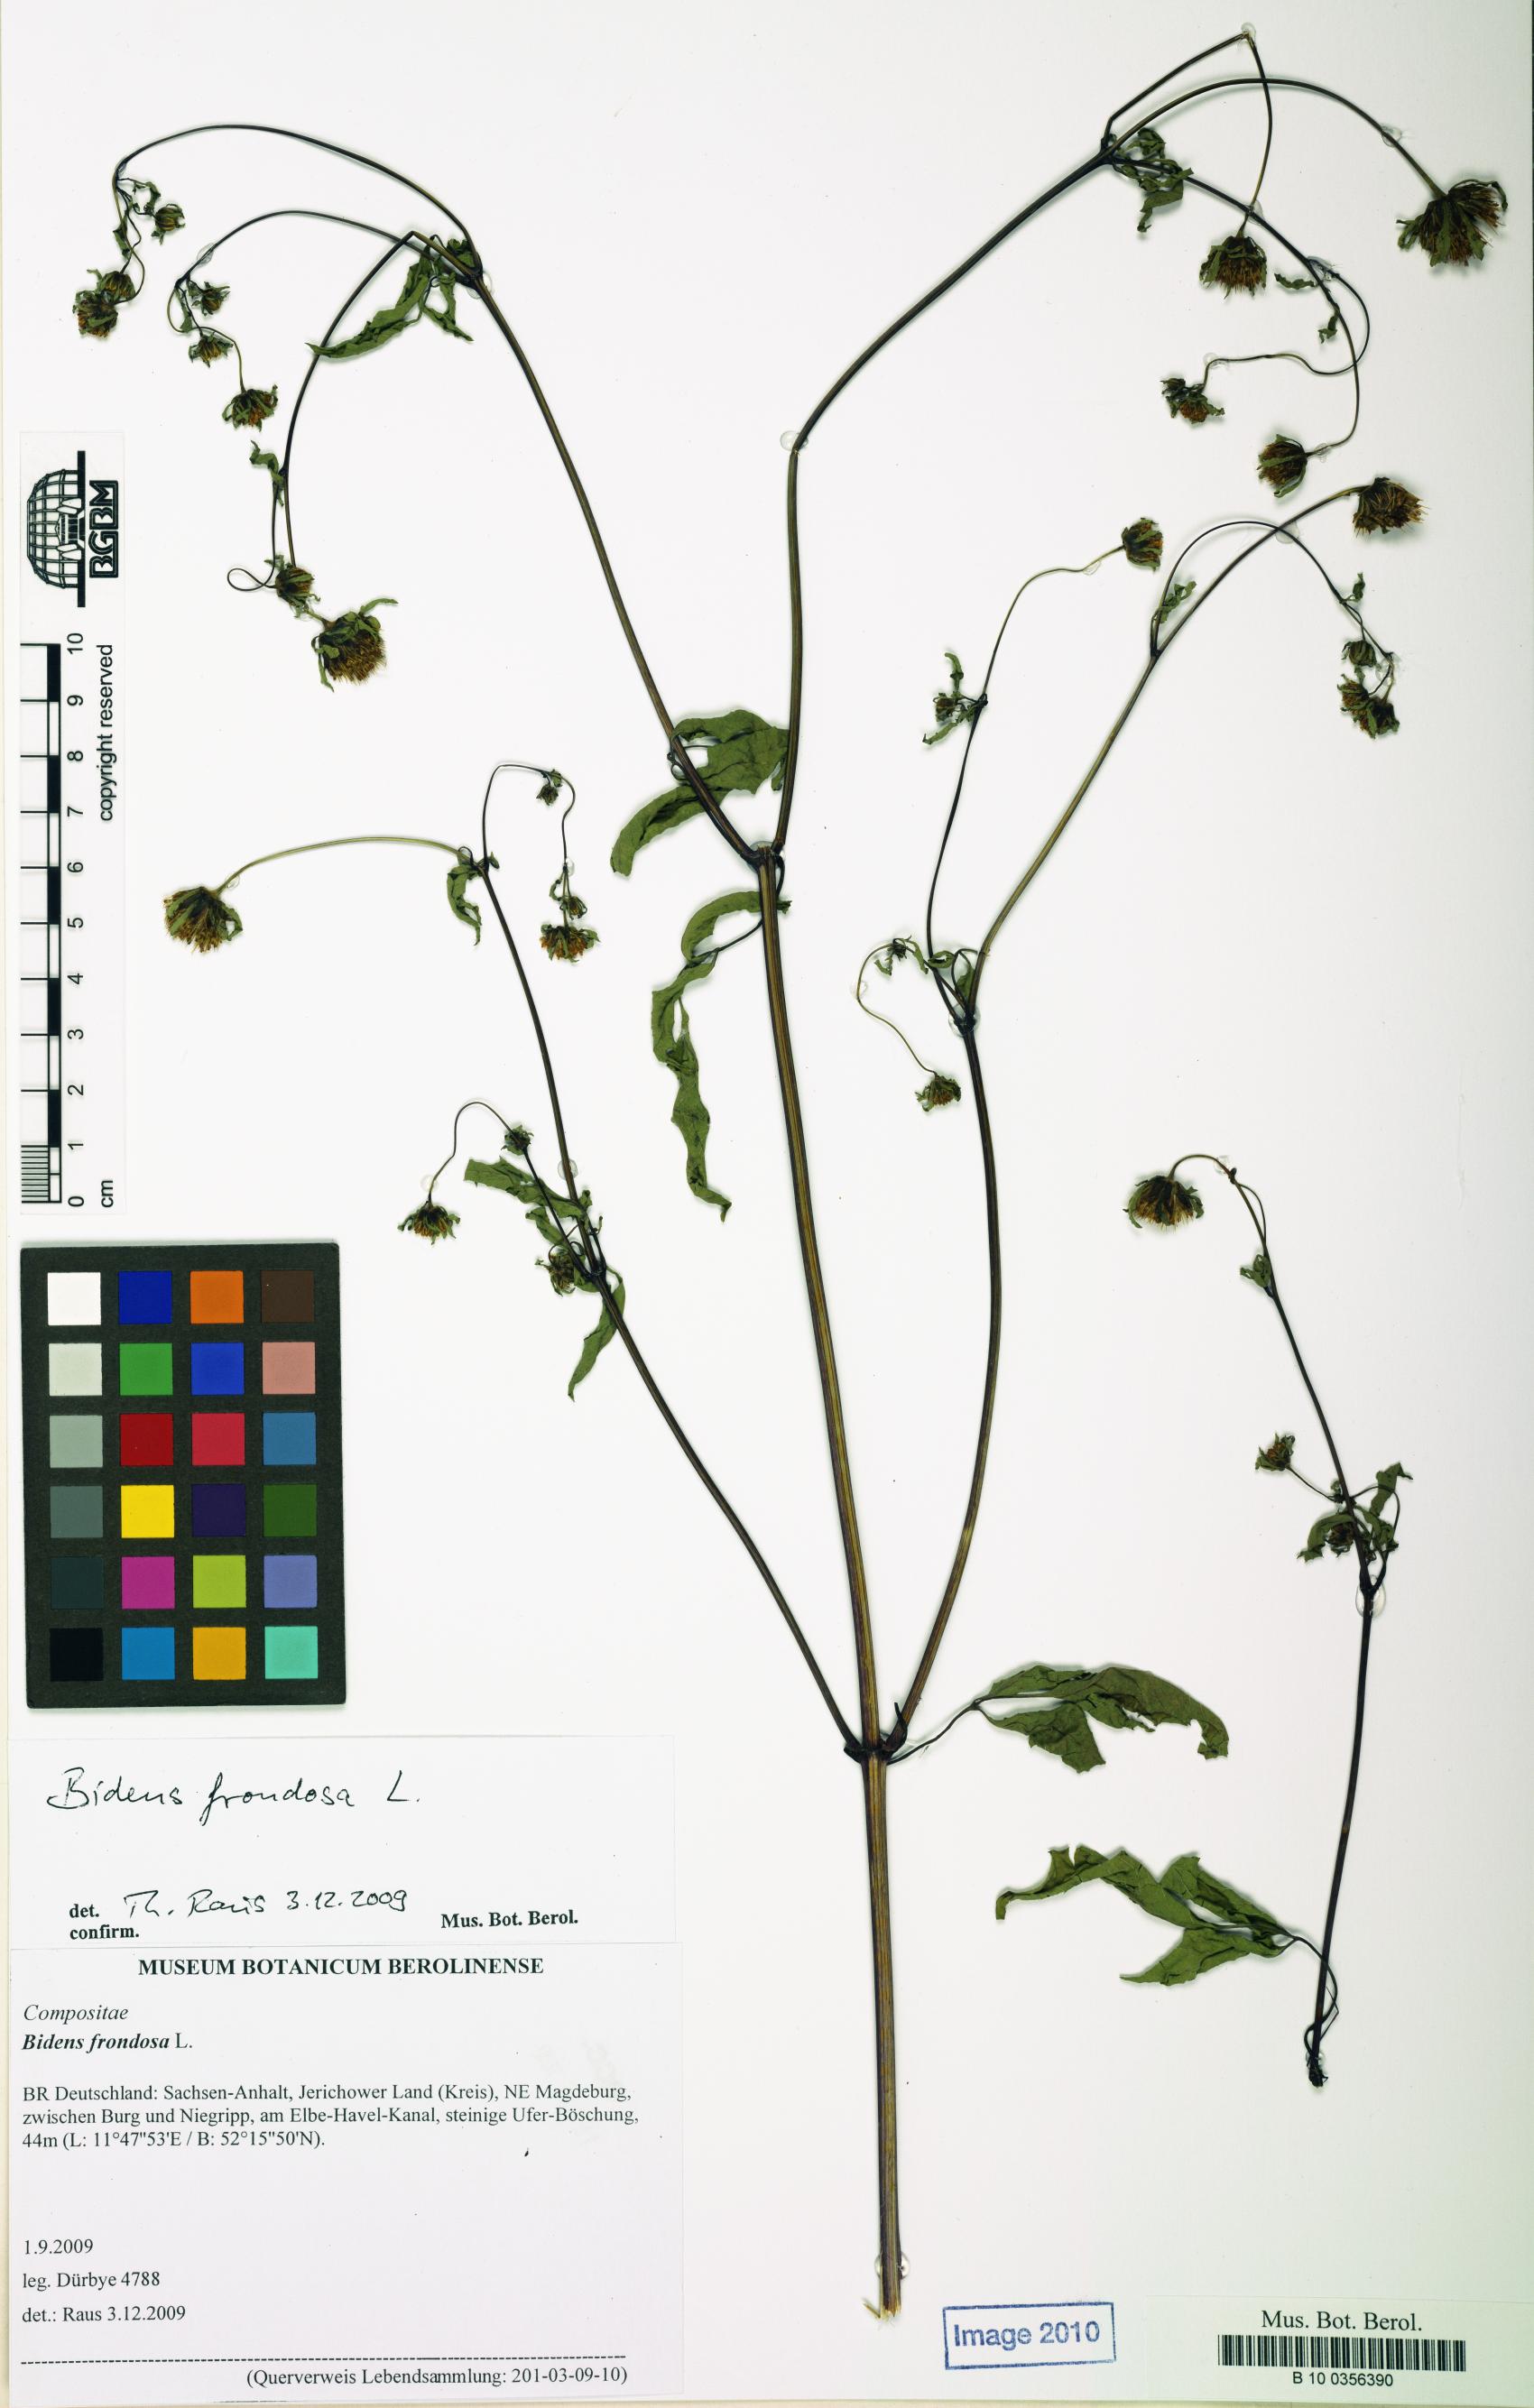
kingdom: Plantae
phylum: Tracheophyta
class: Magnoliopsida
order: Asterales
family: Asteraceae
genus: Bidens
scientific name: Bidens frondosa
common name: Beggarticks
